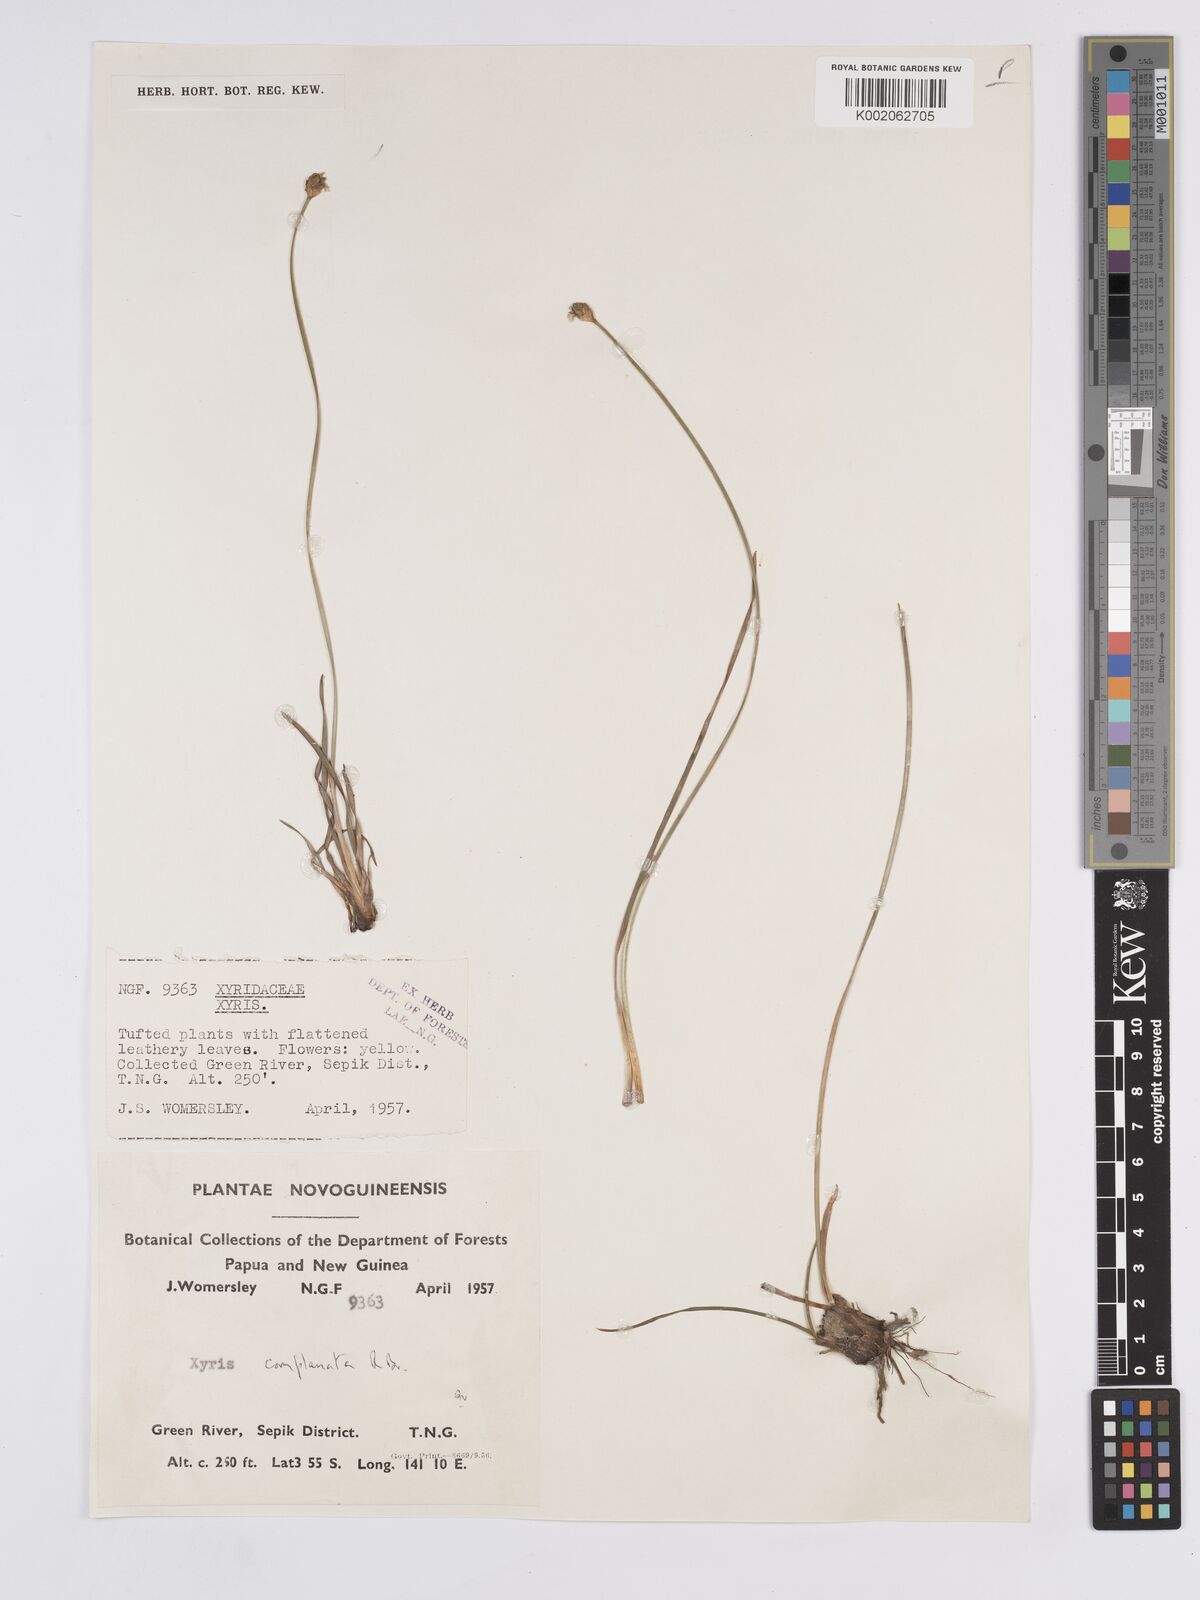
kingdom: Plantae
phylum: Tracheophyta
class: Liliopsida
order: Poales
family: Xyridaceae
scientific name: Xyridaceae
